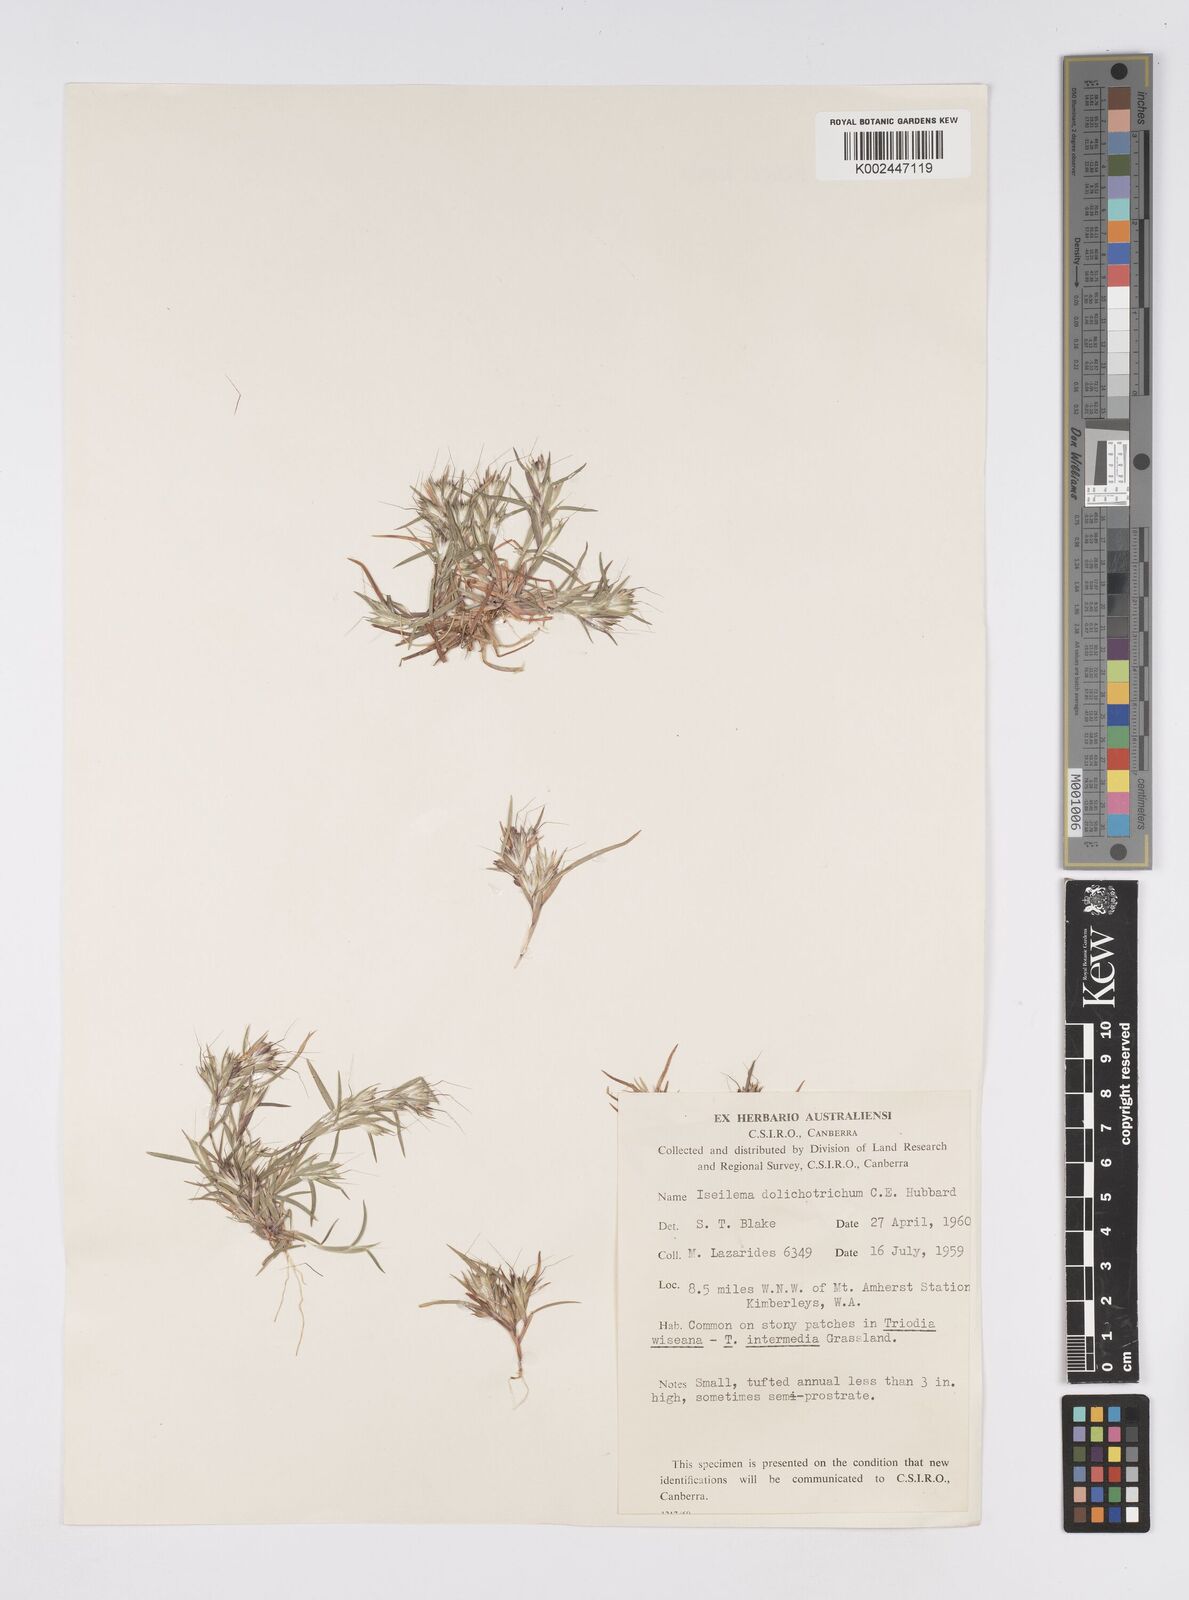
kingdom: Plantae
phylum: Tracheophyta
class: Liliopsida
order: Poales
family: Poaceae
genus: Iseilema
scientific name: Iseilema dolichotrichum
